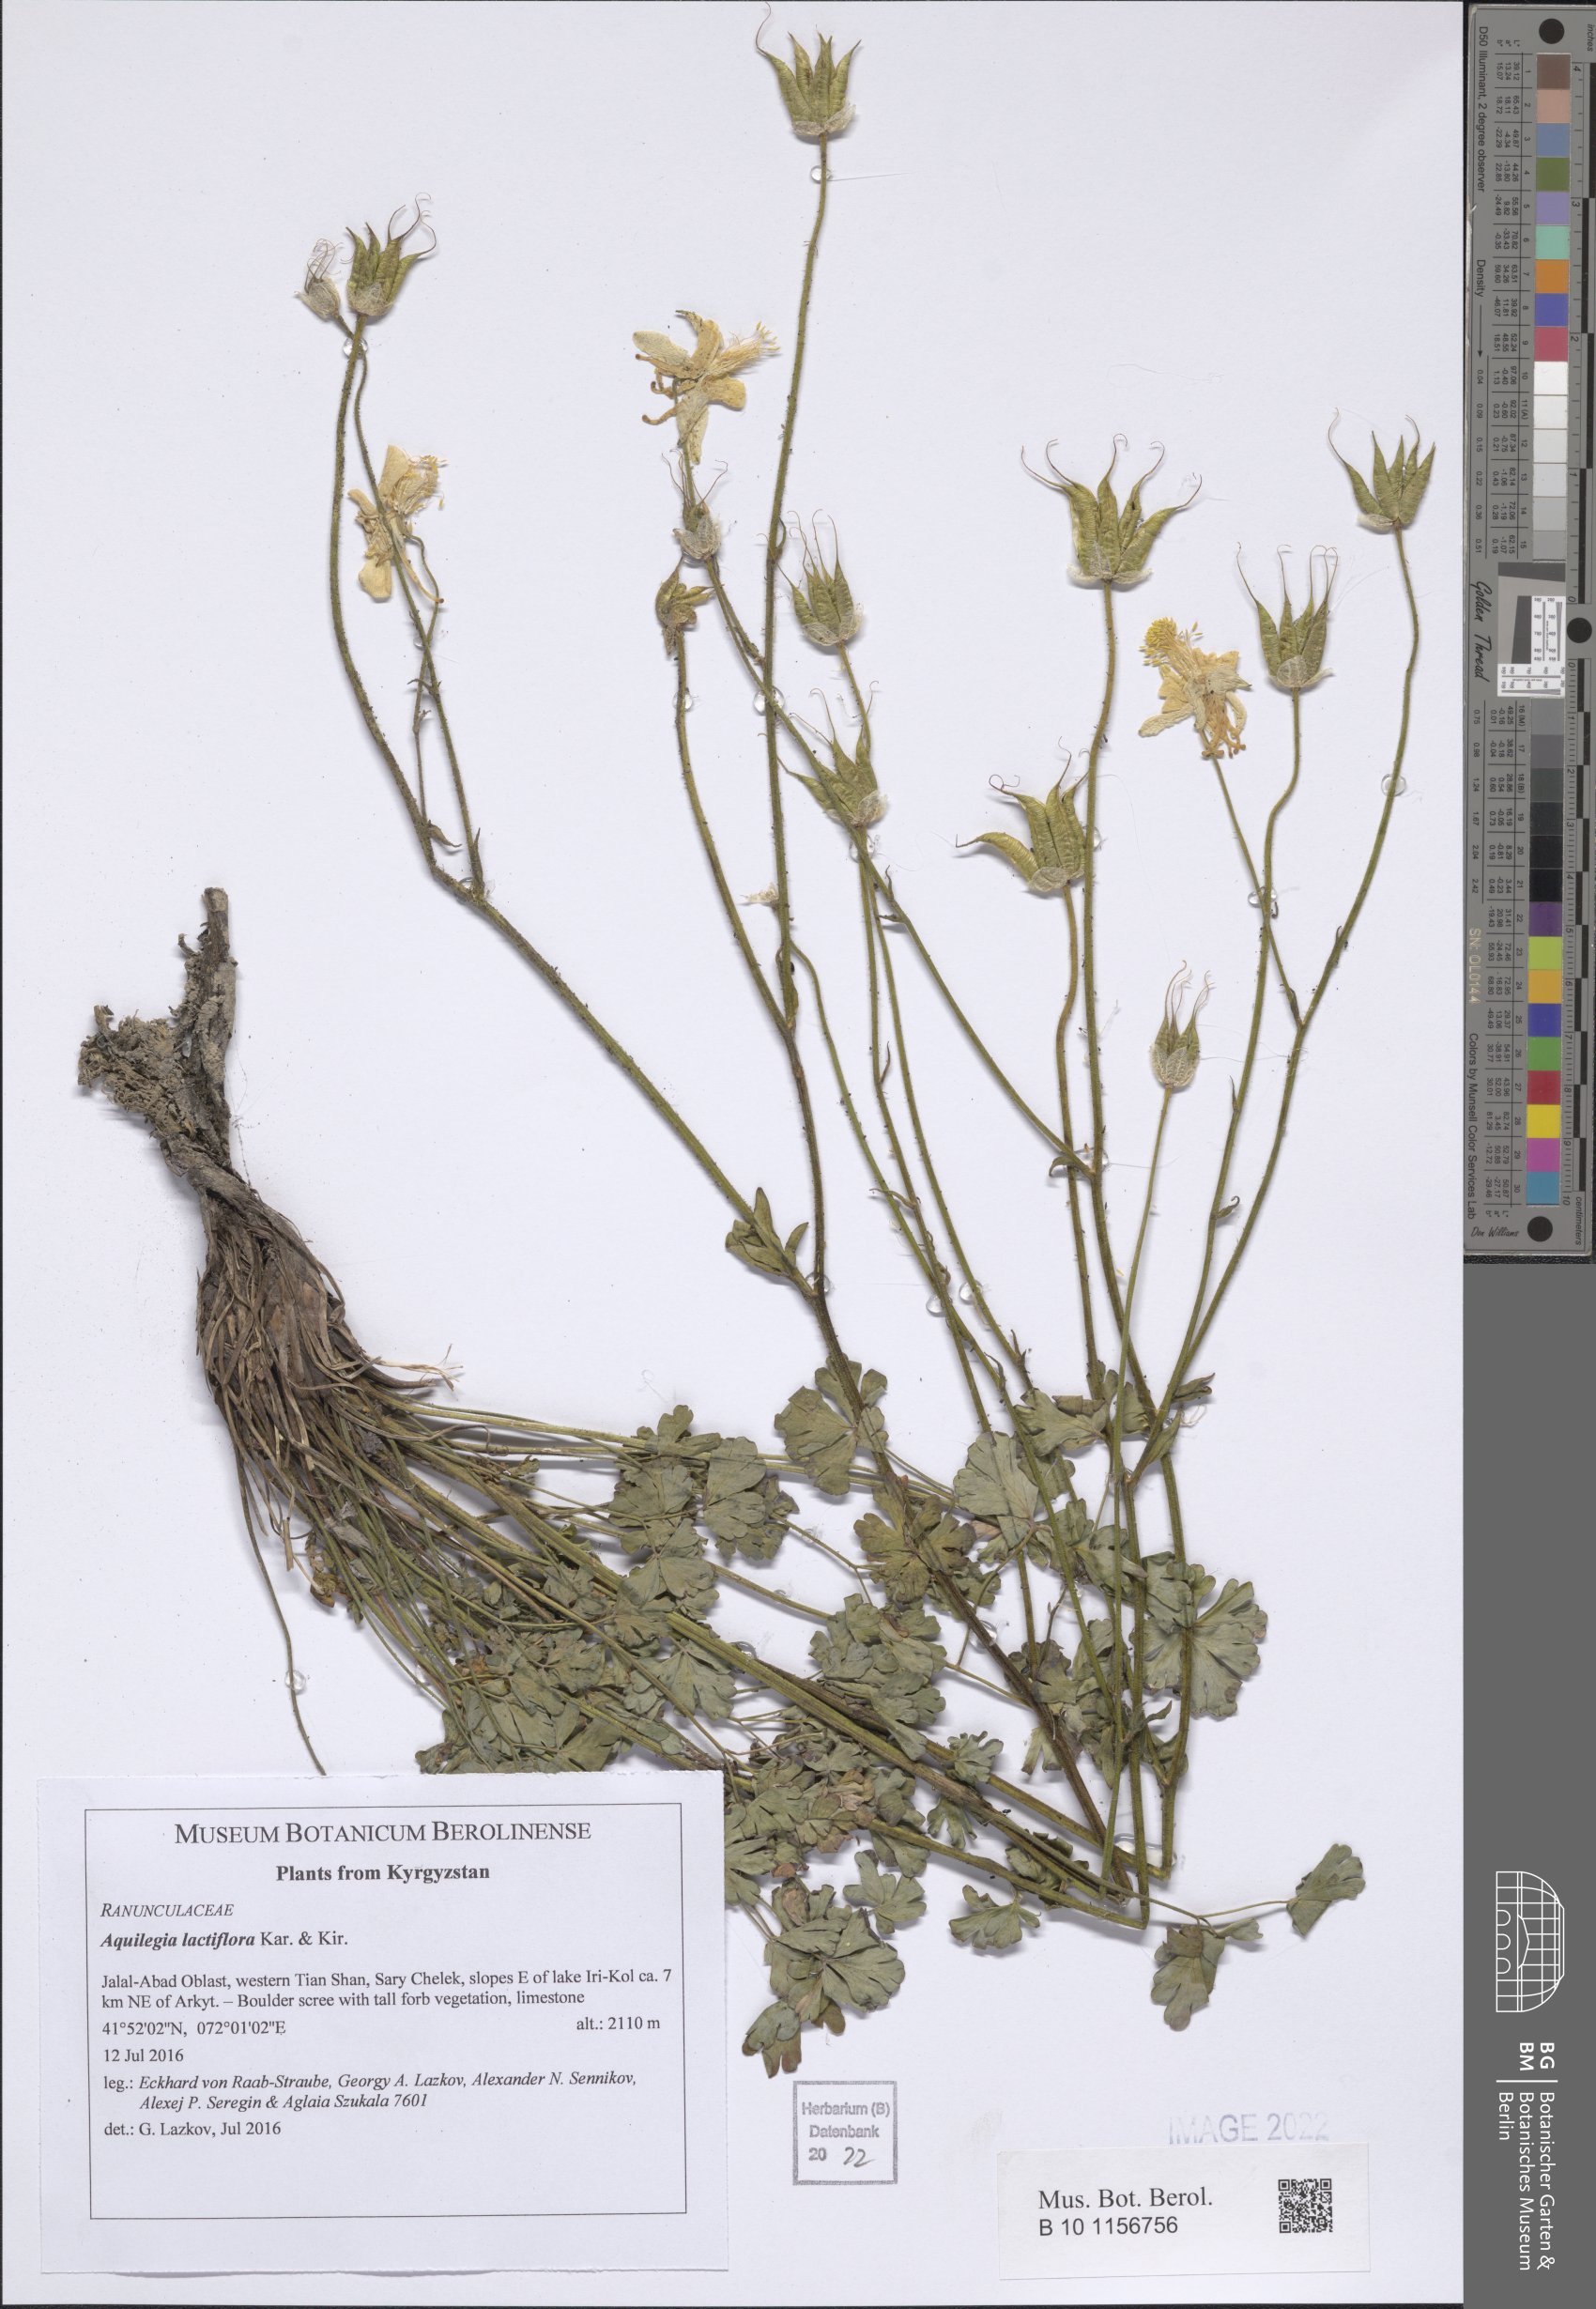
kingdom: Plantae
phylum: Tracheophyta
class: Magnoliopsida
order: Ranunculales
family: Ranunculaceae
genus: Aquilegia
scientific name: Aquilegia lactiflora
